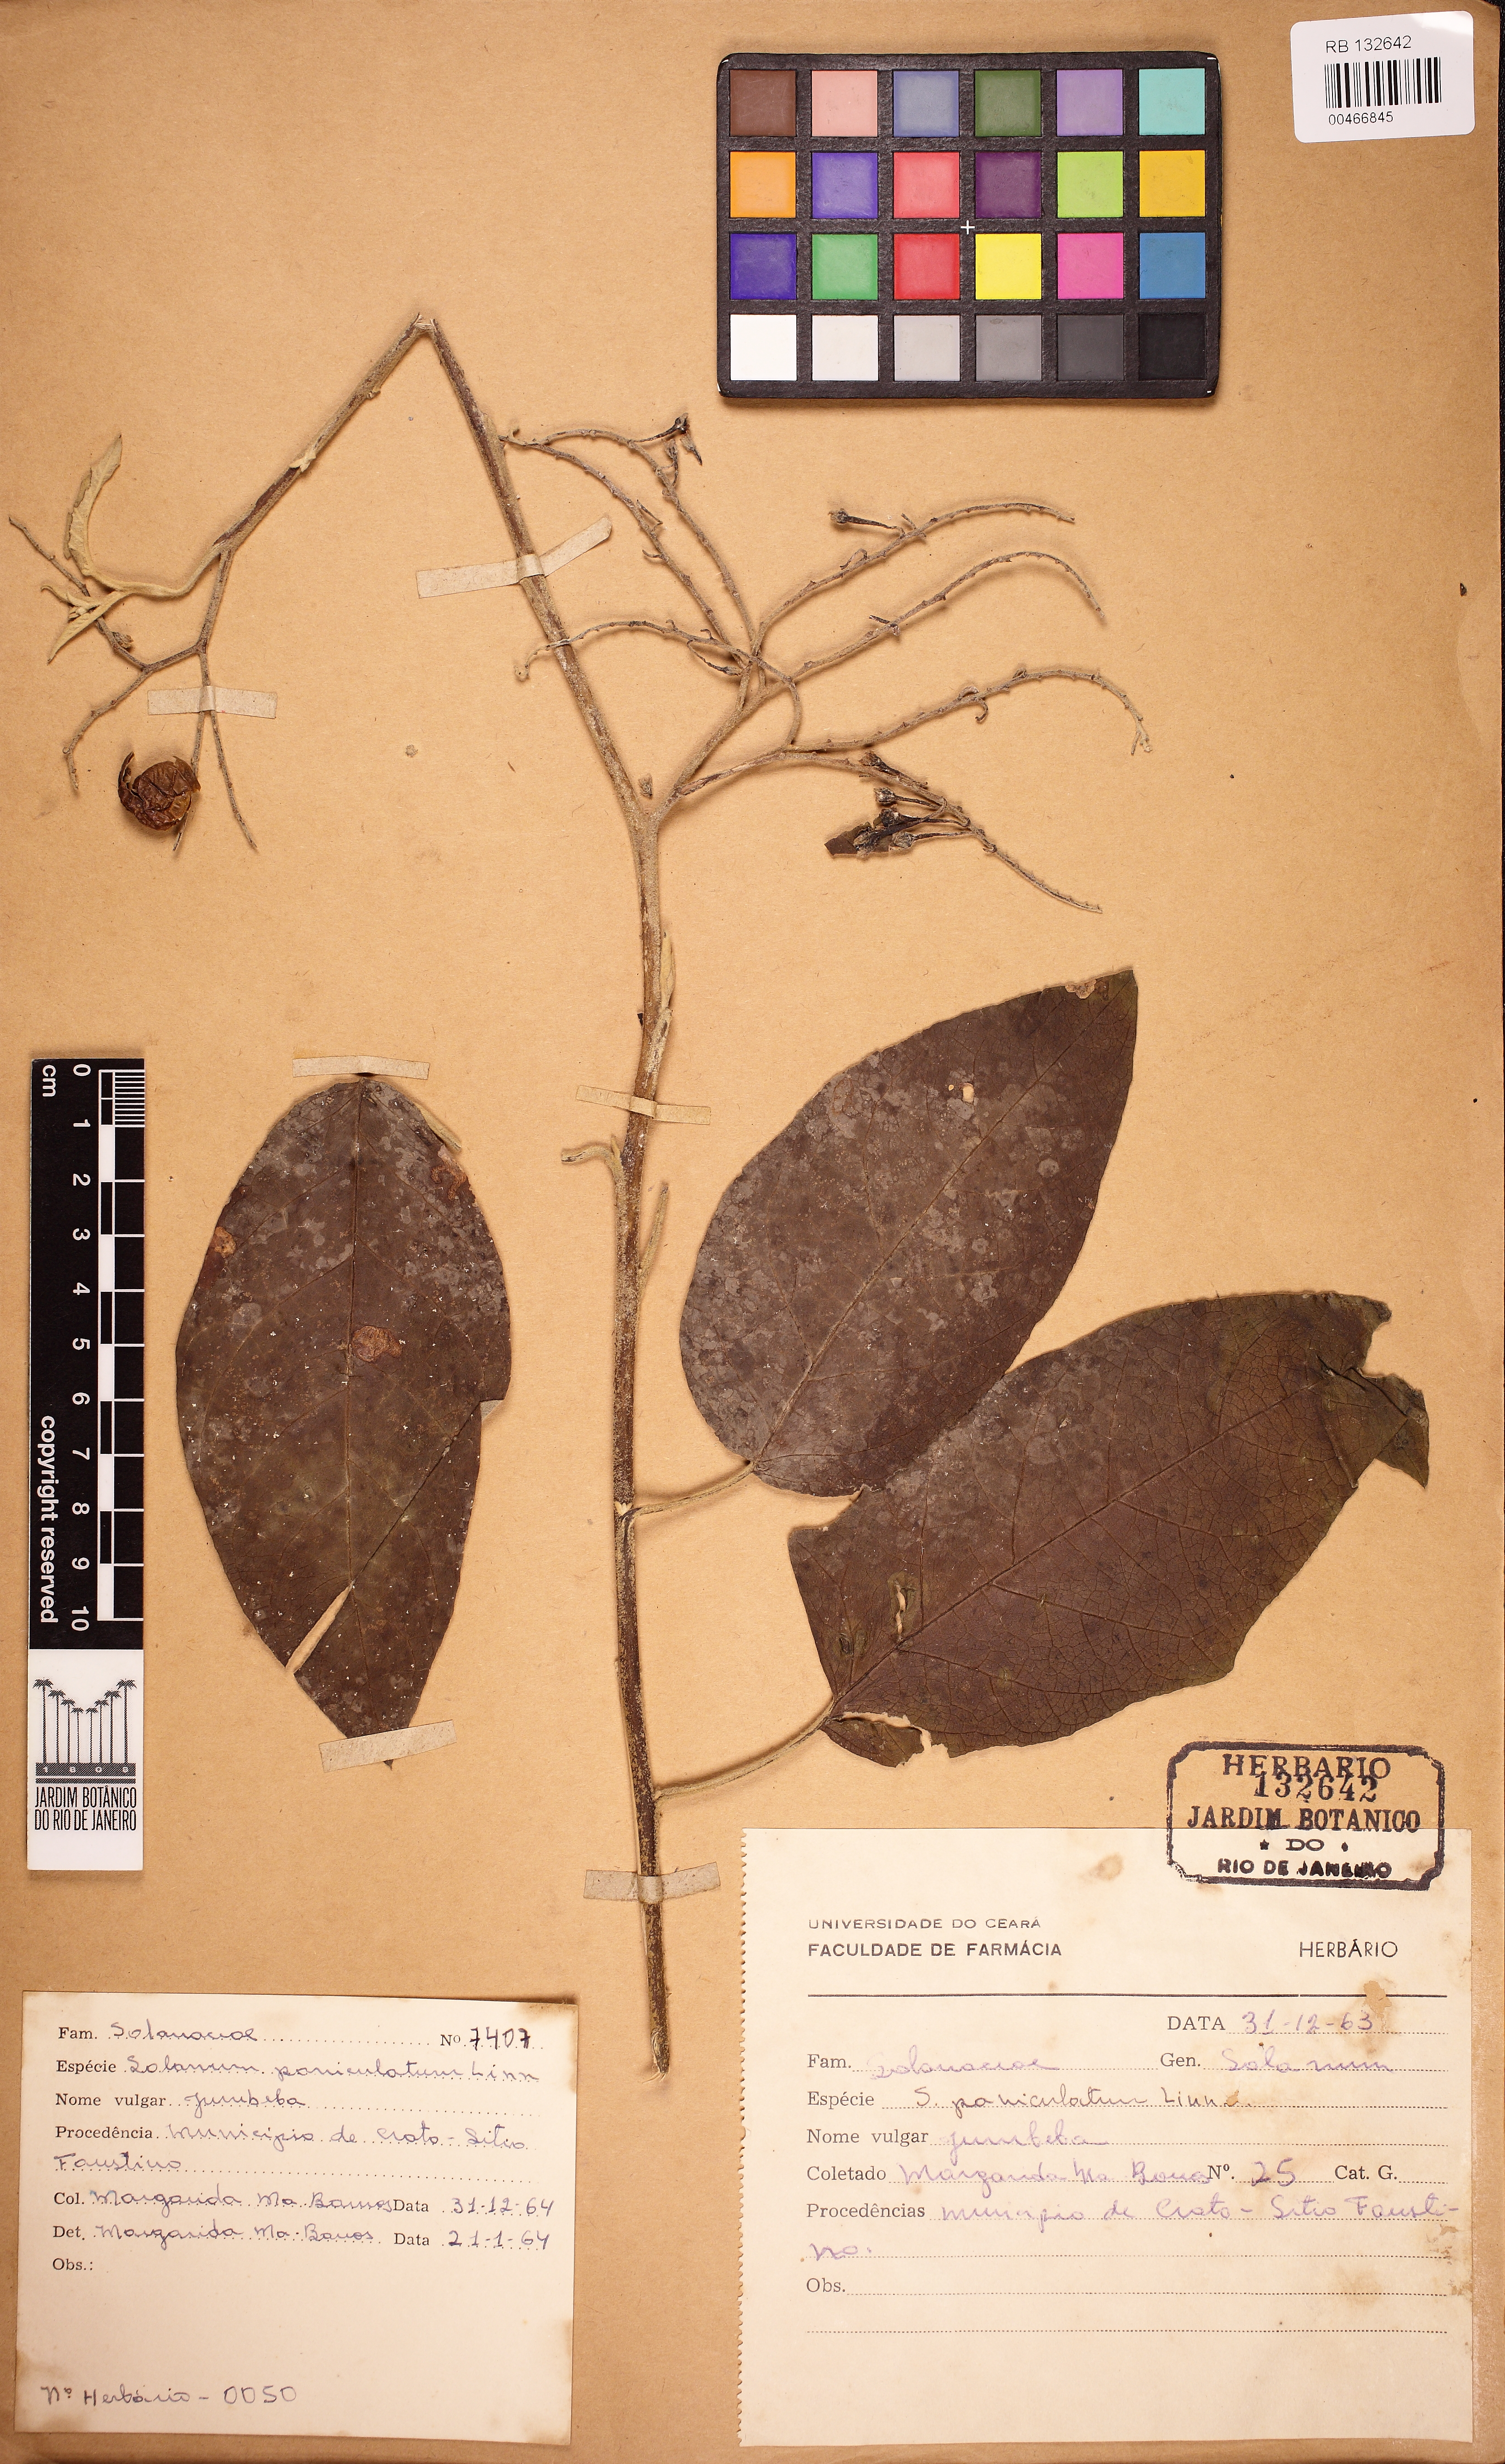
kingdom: Plantae
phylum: Tracheophyta
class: Magnoliopsida
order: Solanales
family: Solanaceae
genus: Solanum
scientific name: Solanum paniculatum
